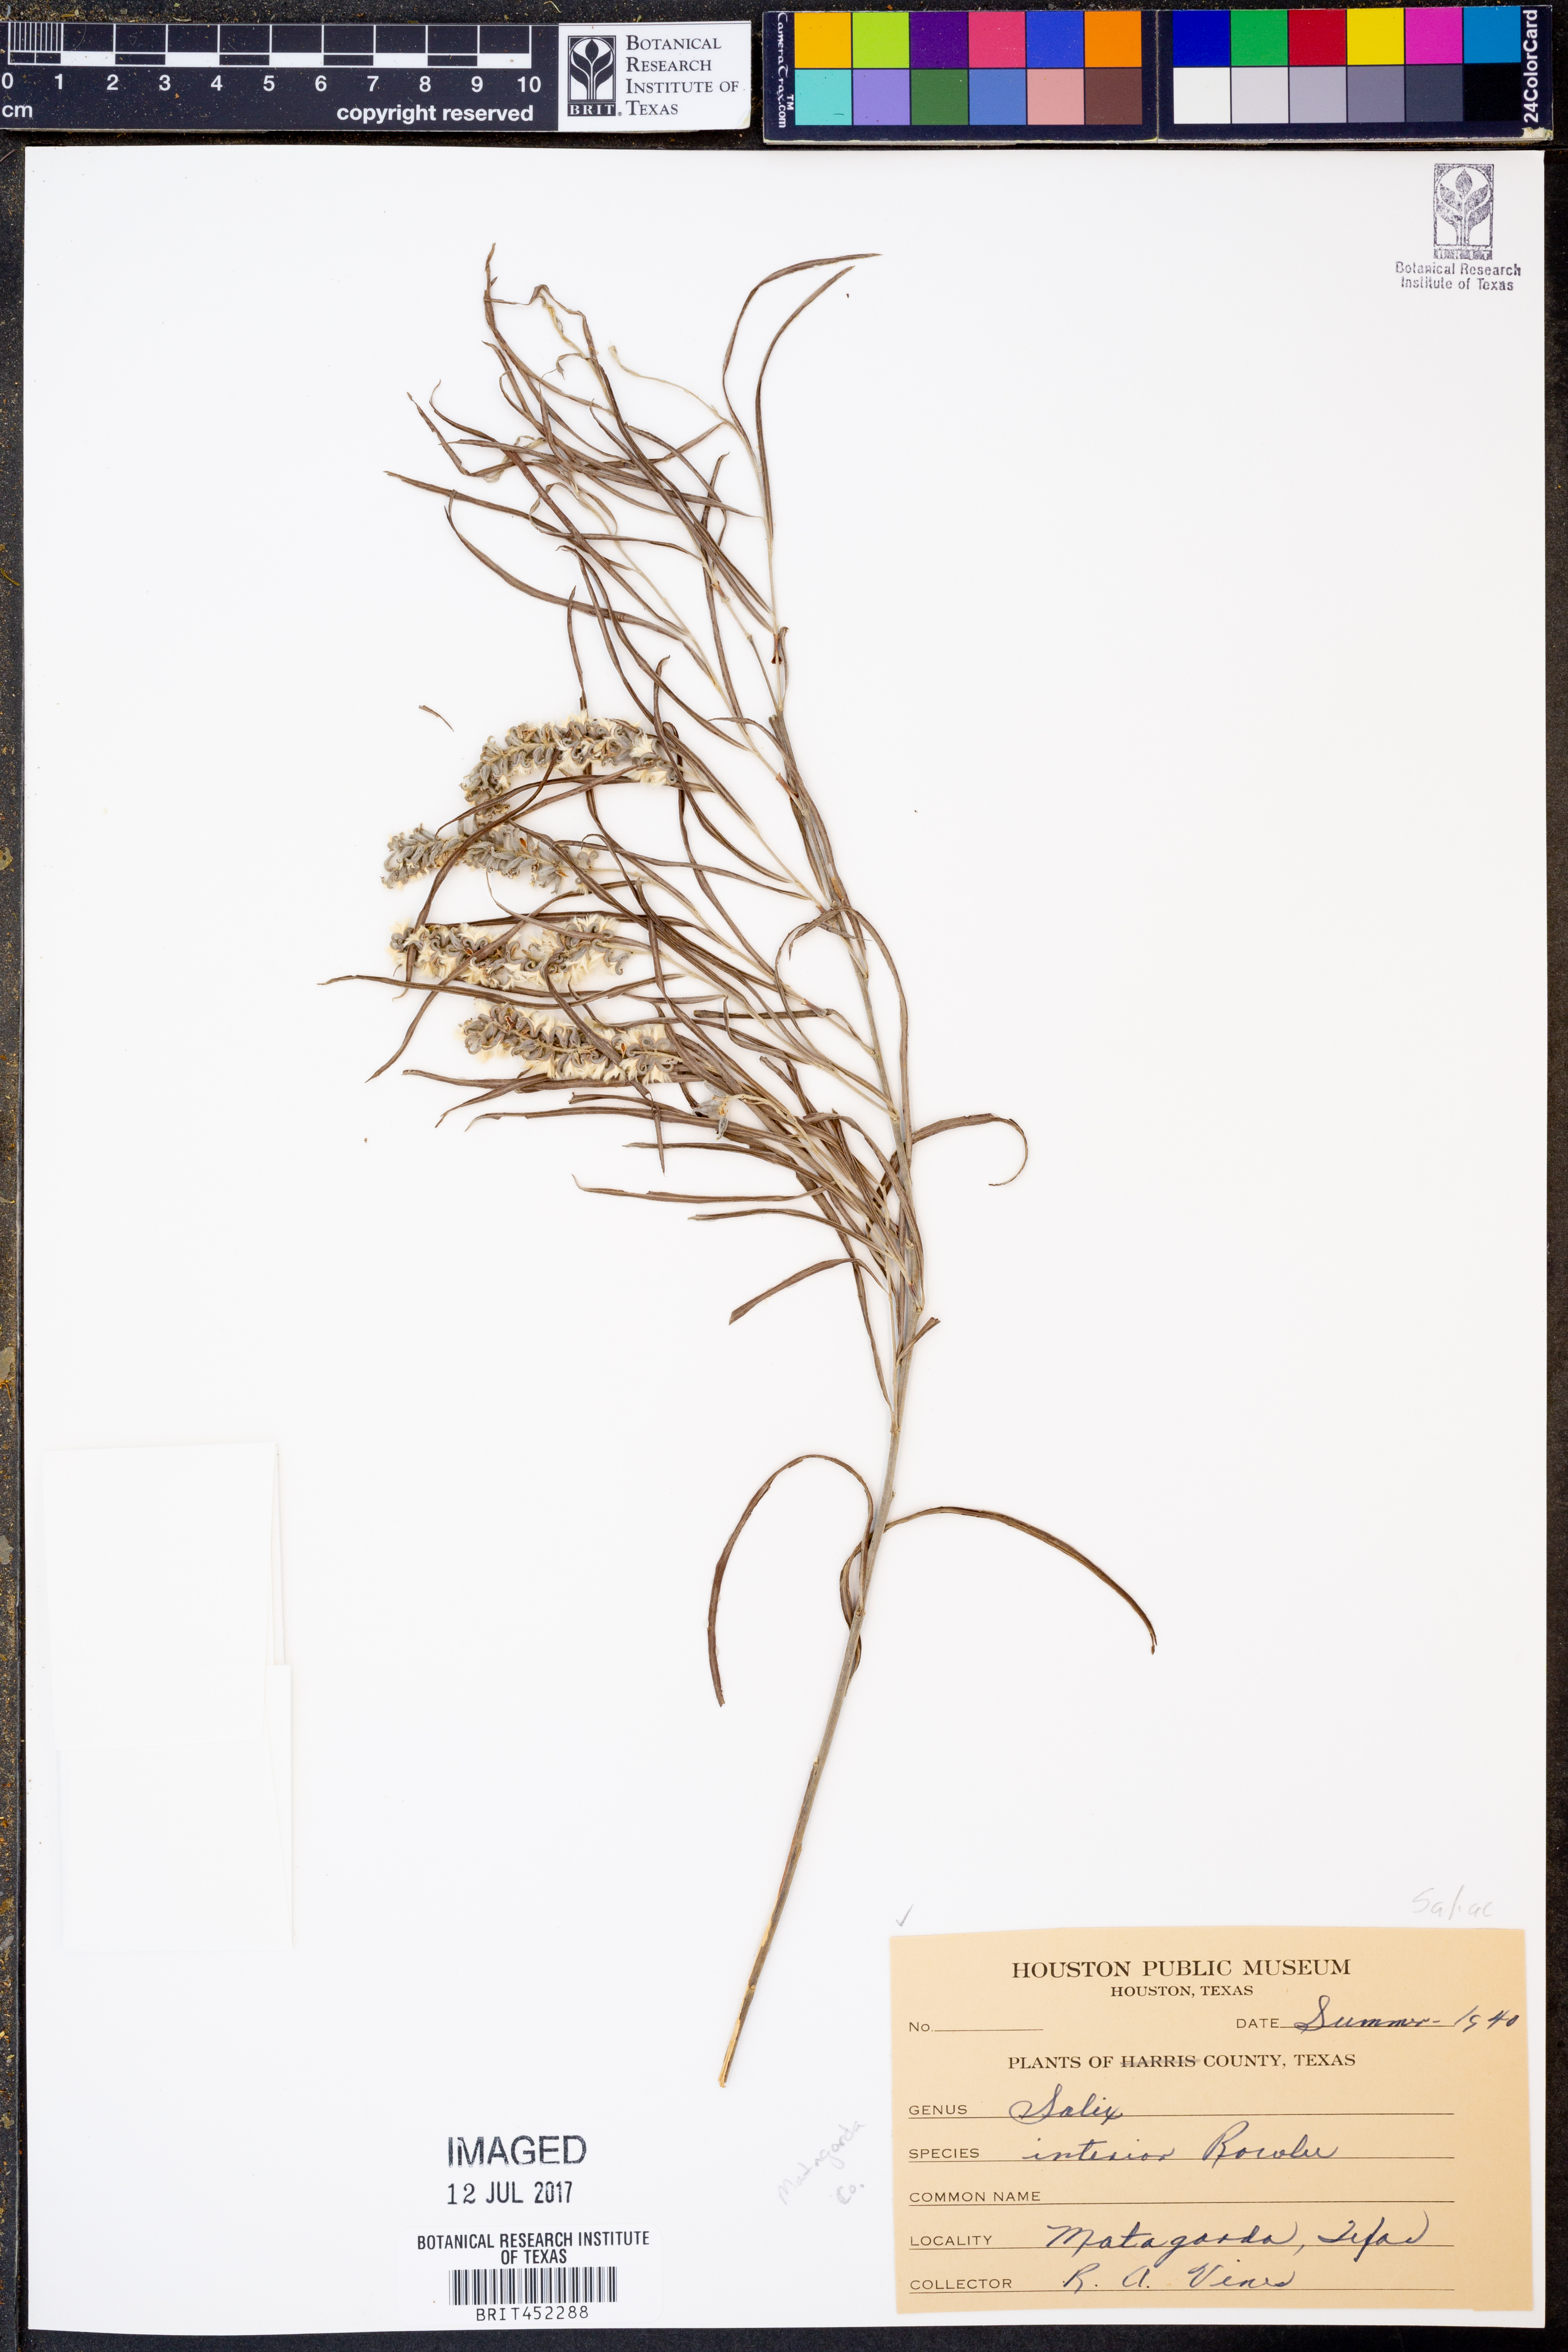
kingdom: Plantae
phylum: Tracheophyta
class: Magnoliopsida
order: Malpighiales
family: Salicaceae
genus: Salix
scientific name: Salix interior
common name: Sandbar willow
